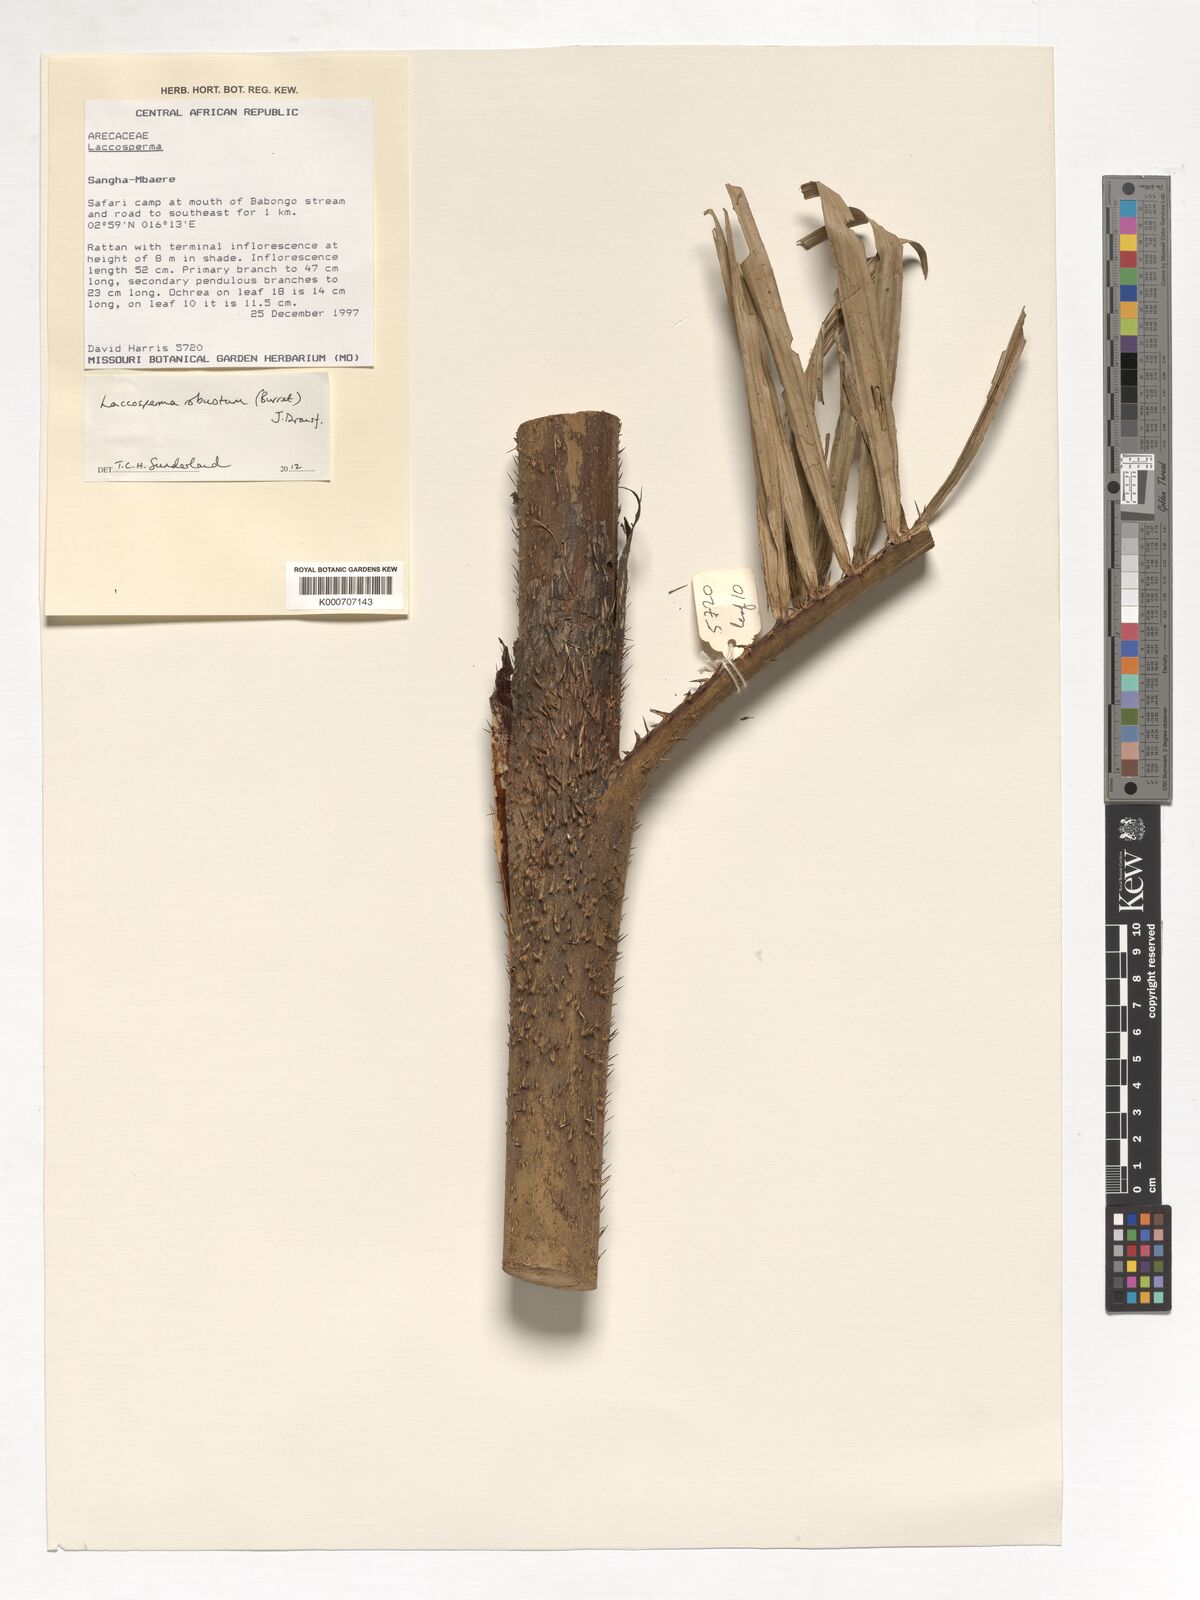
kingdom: Plantae
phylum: Tracheophyta
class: Liliopsida
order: Arecales
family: Arecaceae
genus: Laccosperma
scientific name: Laccosperma robustum
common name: Rattan
